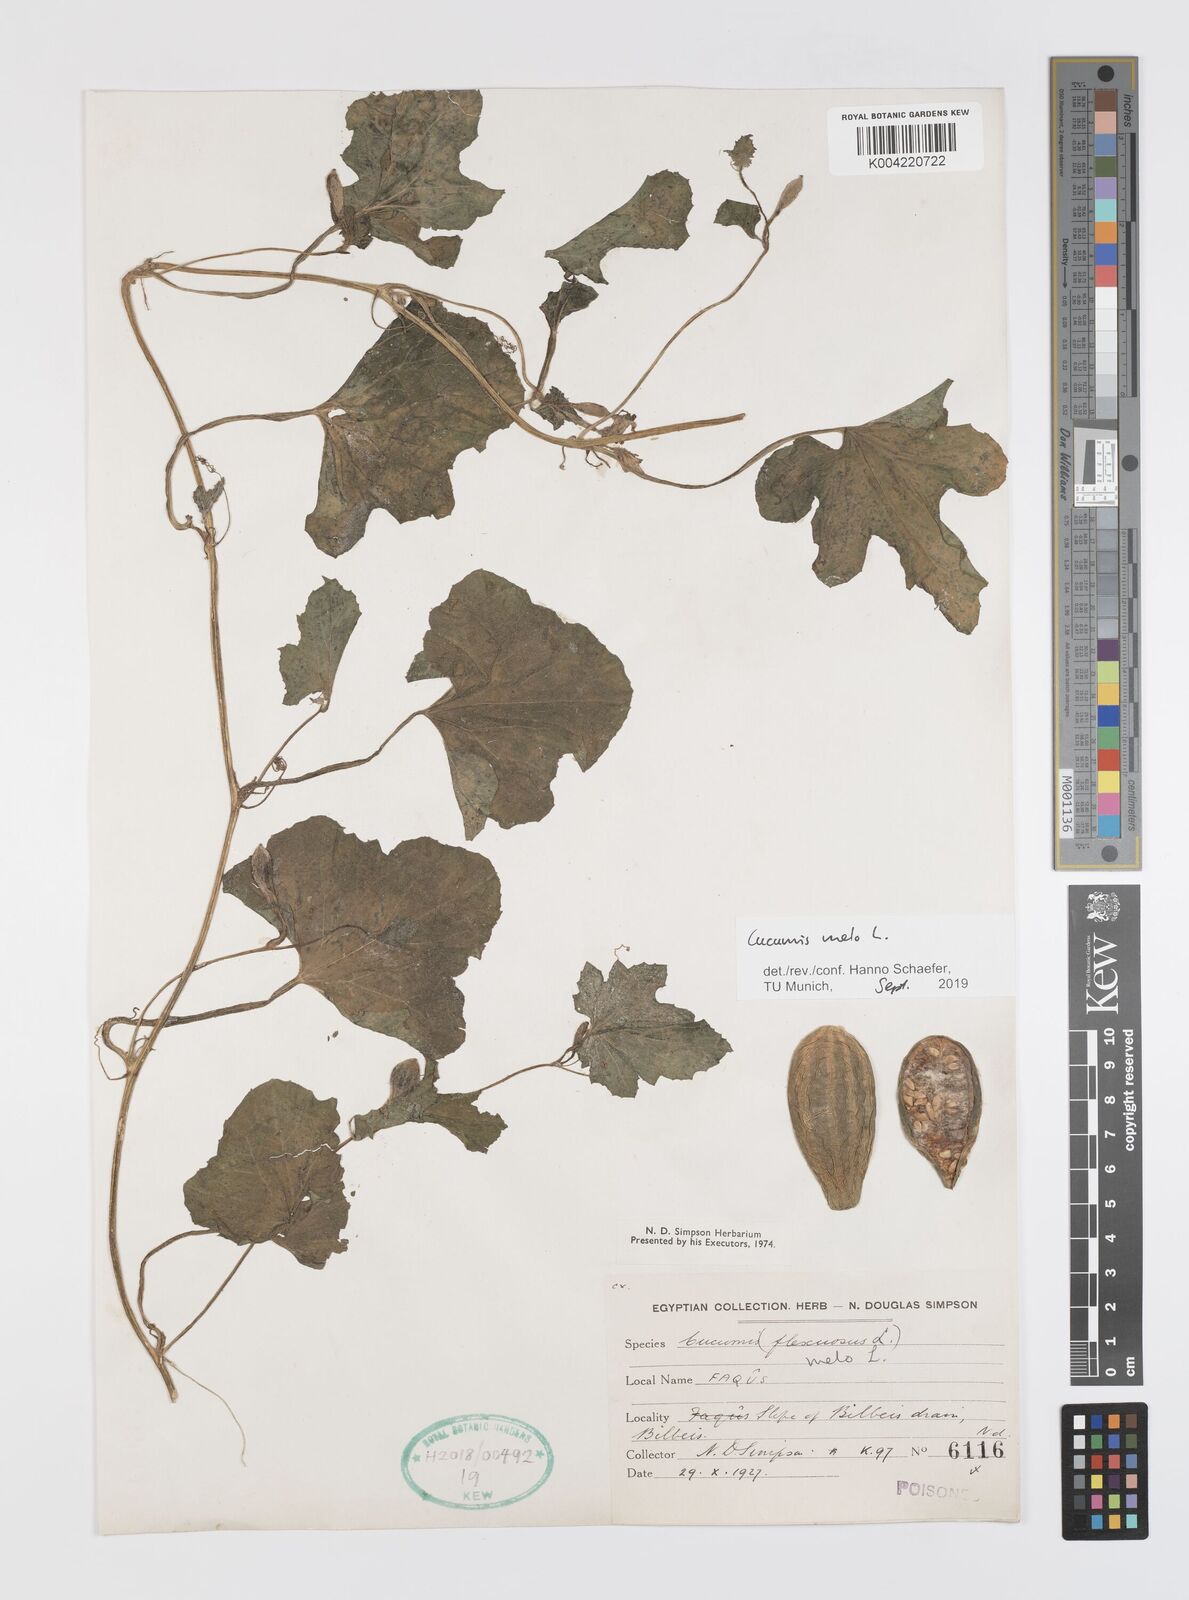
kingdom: Plantae
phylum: Tracheophyta
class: Magnoliopsida
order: Cucurbitales
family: Cucurbitaceae
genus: Cucumis
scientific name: Cucumis melo
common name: Melon
